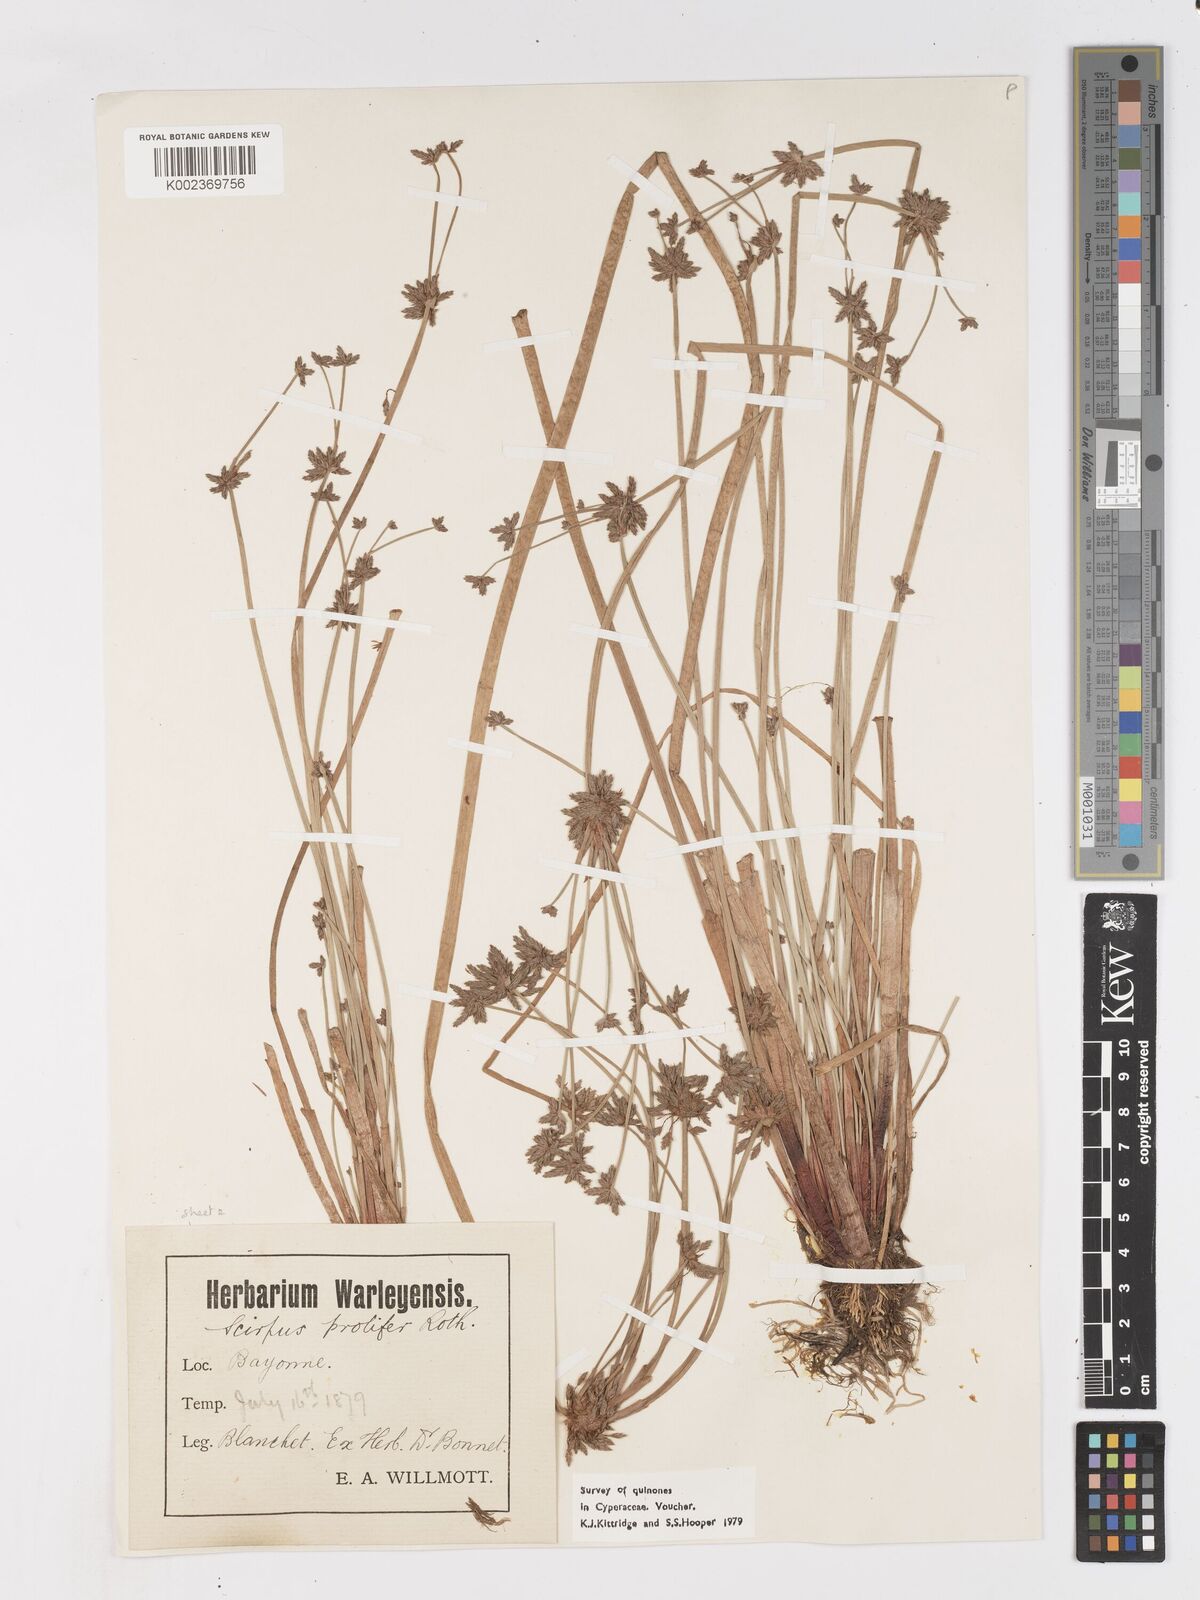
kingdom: Plantae
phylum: Tracheophyta
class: Liliopsida
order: Poales
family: Cyperaceae
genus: Isolepis
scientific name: Isolepis prolifera
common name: Proliferating bulrush
